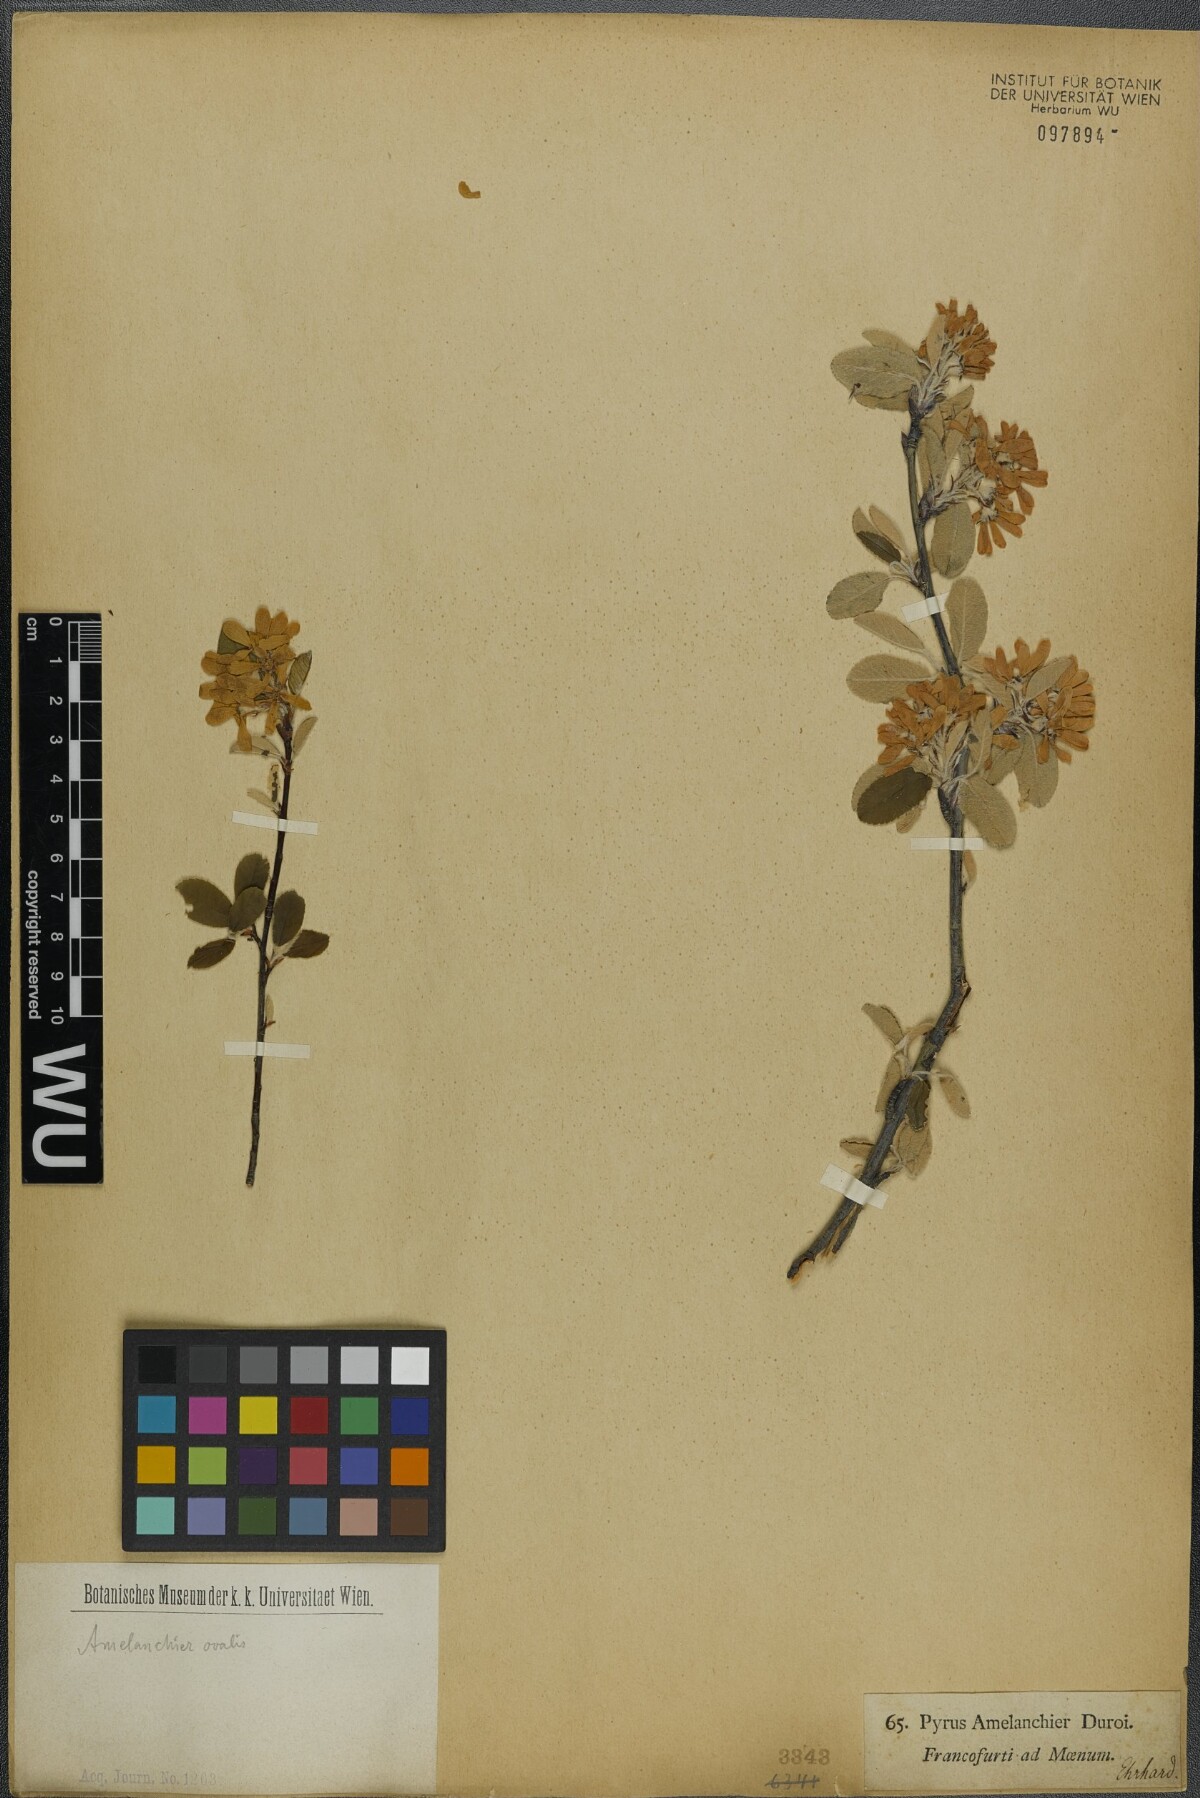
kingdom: Plantae
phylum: Tracheophyta
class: Magnoliopsida
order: Rosales
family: Rosaceae
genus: Amelanchier
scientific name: Amelanchier ovalis
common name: Serviceberry
